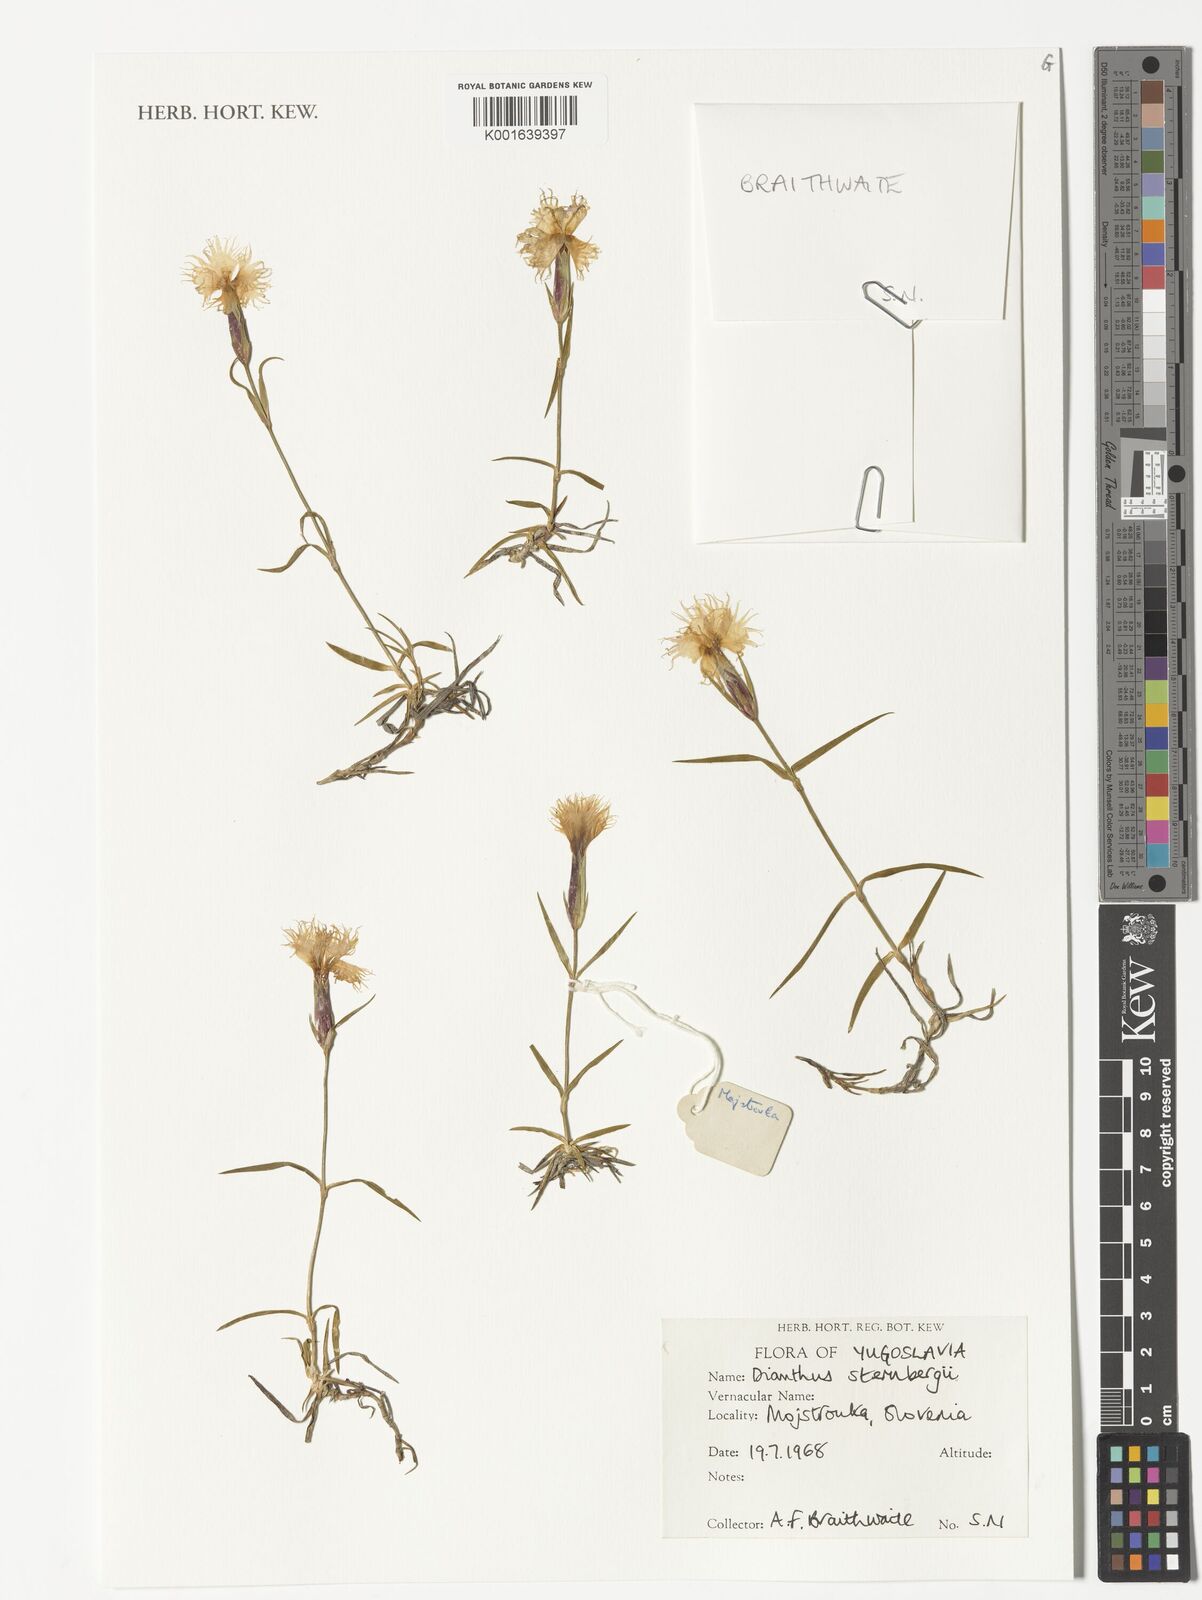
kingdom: Plantae
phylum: Tracheophyta
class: Magnoliopsida
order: Caryophyllales
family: Caryophyllaceae
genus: Dianthus
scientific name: Dianthus sternbergii
